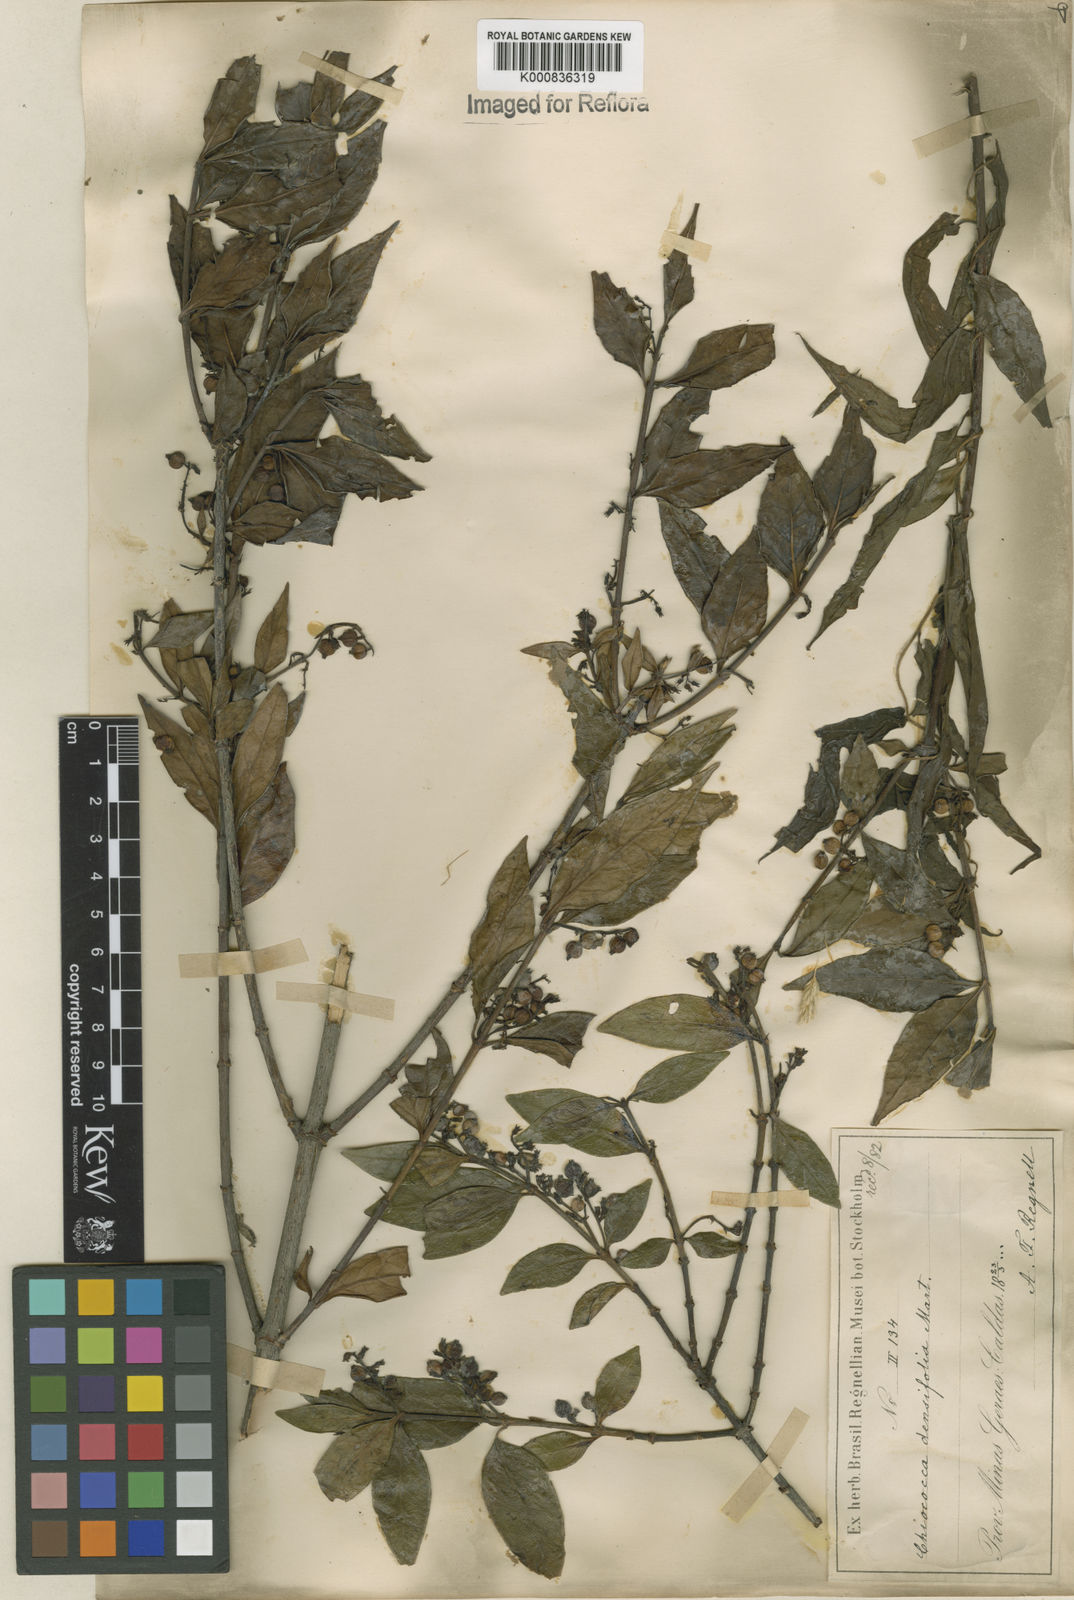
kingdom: Plantae
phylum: Tracheophyta
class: Magnoliopsida
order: Gentianales
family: Rubiaceae
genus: Chiococca
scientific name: Chiococca alba
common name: Snowberry
